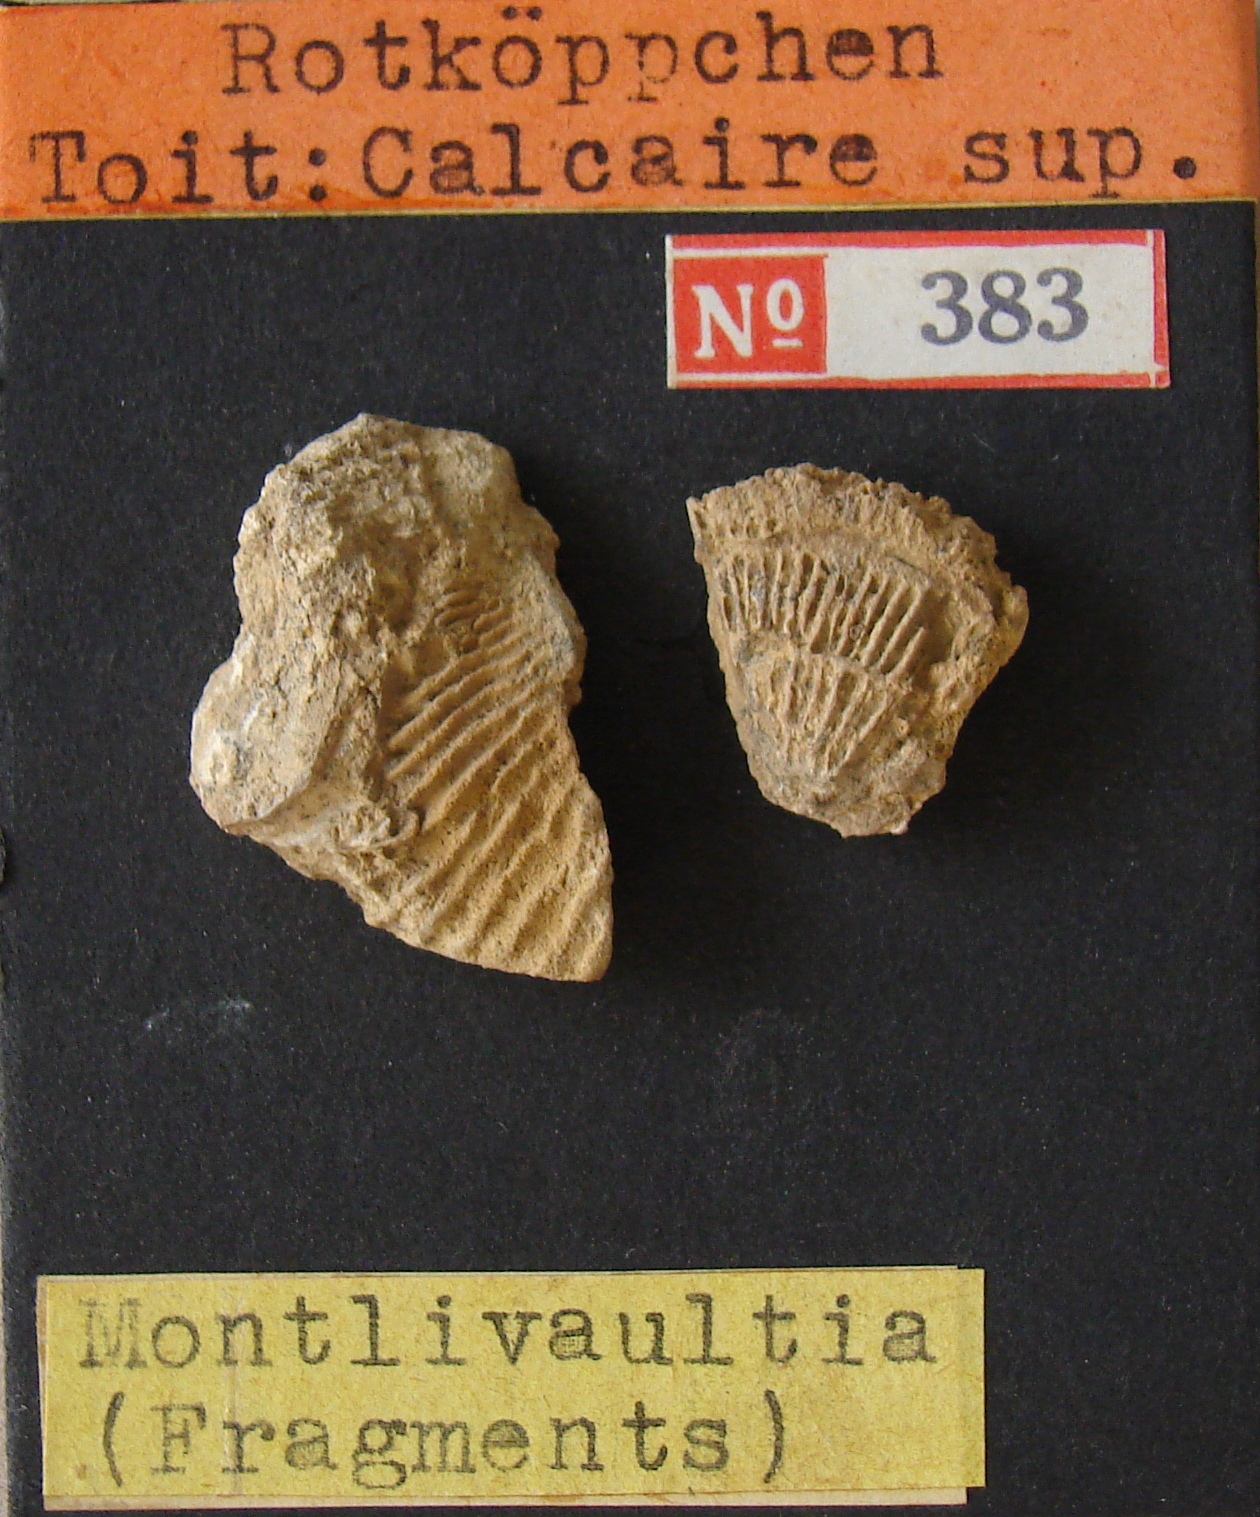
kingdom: Animalia
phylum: Cnidaria
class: Anthozoa
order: Scleractinia
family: Thecosmiliidae
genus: Montlivaltia
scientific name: Montlivaltia
